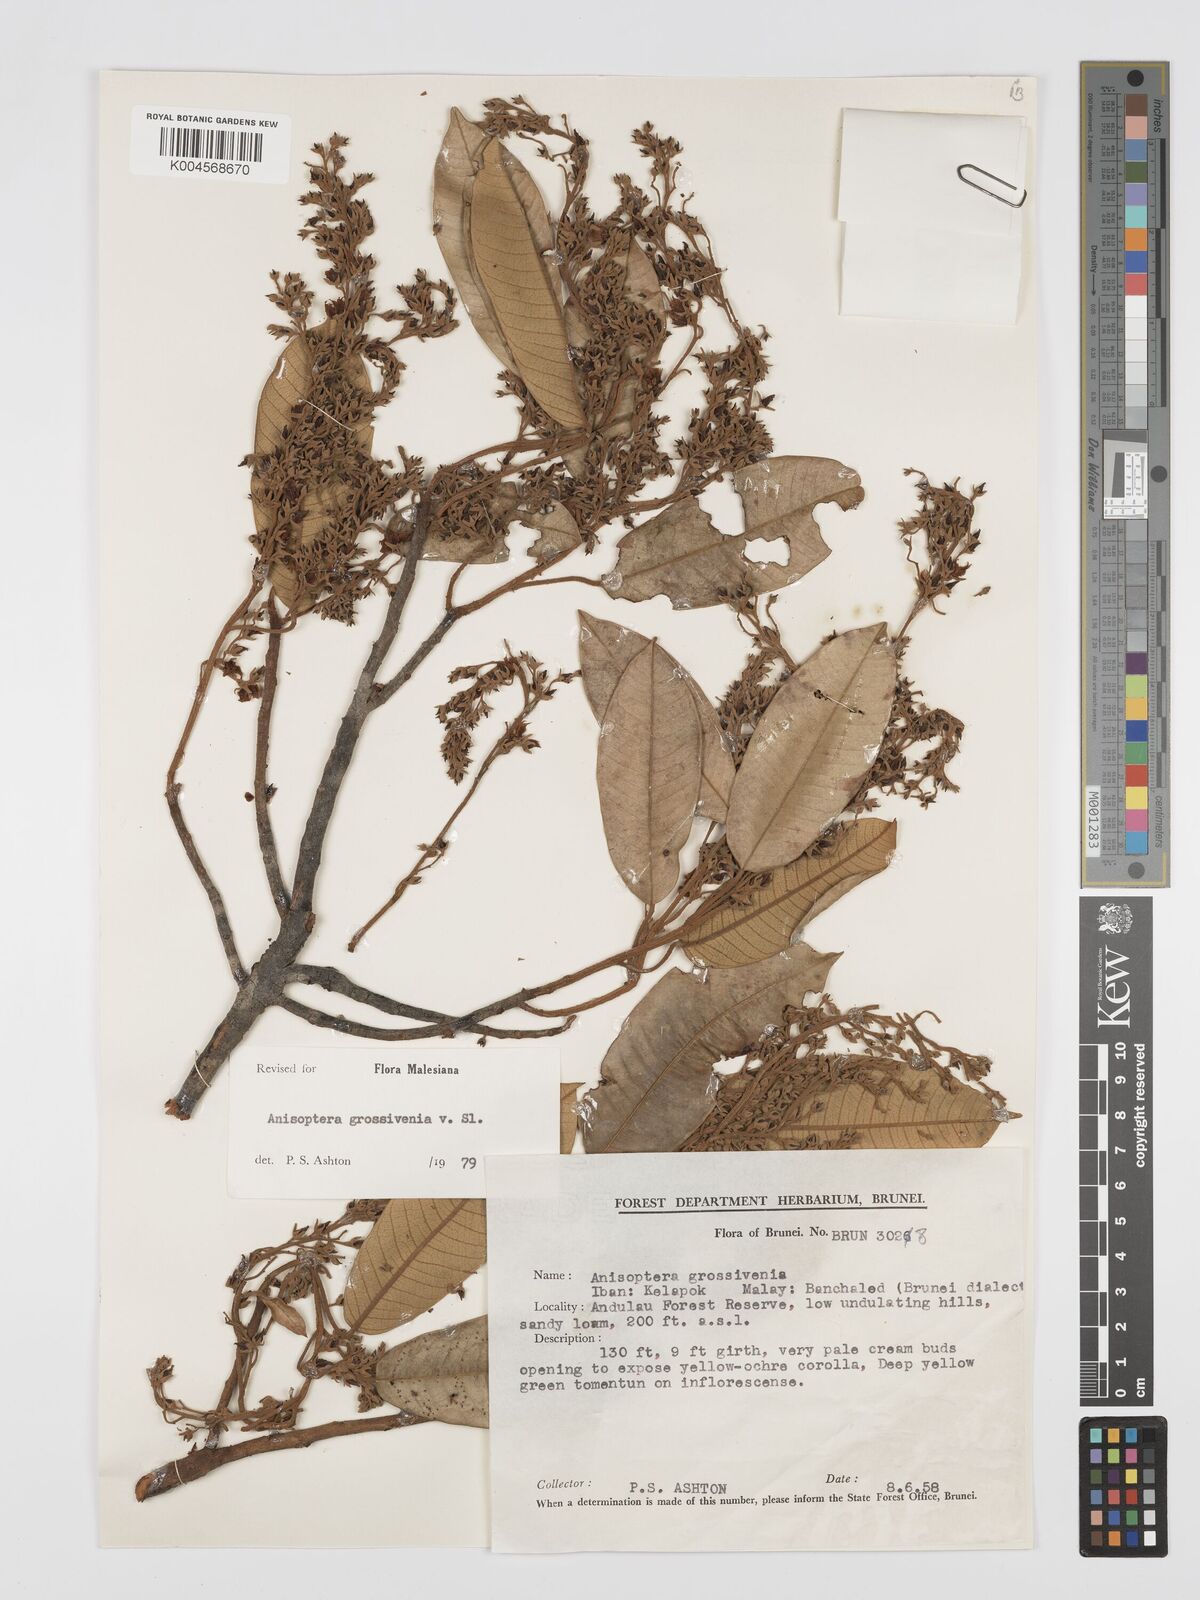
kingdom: Plantae
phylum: Tracheophyta
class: Magnoliopsida
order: Malvales
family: Dipterocarpaceae
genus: Anisoptera
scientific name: Anisoptera grossivenia
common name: Krabak
